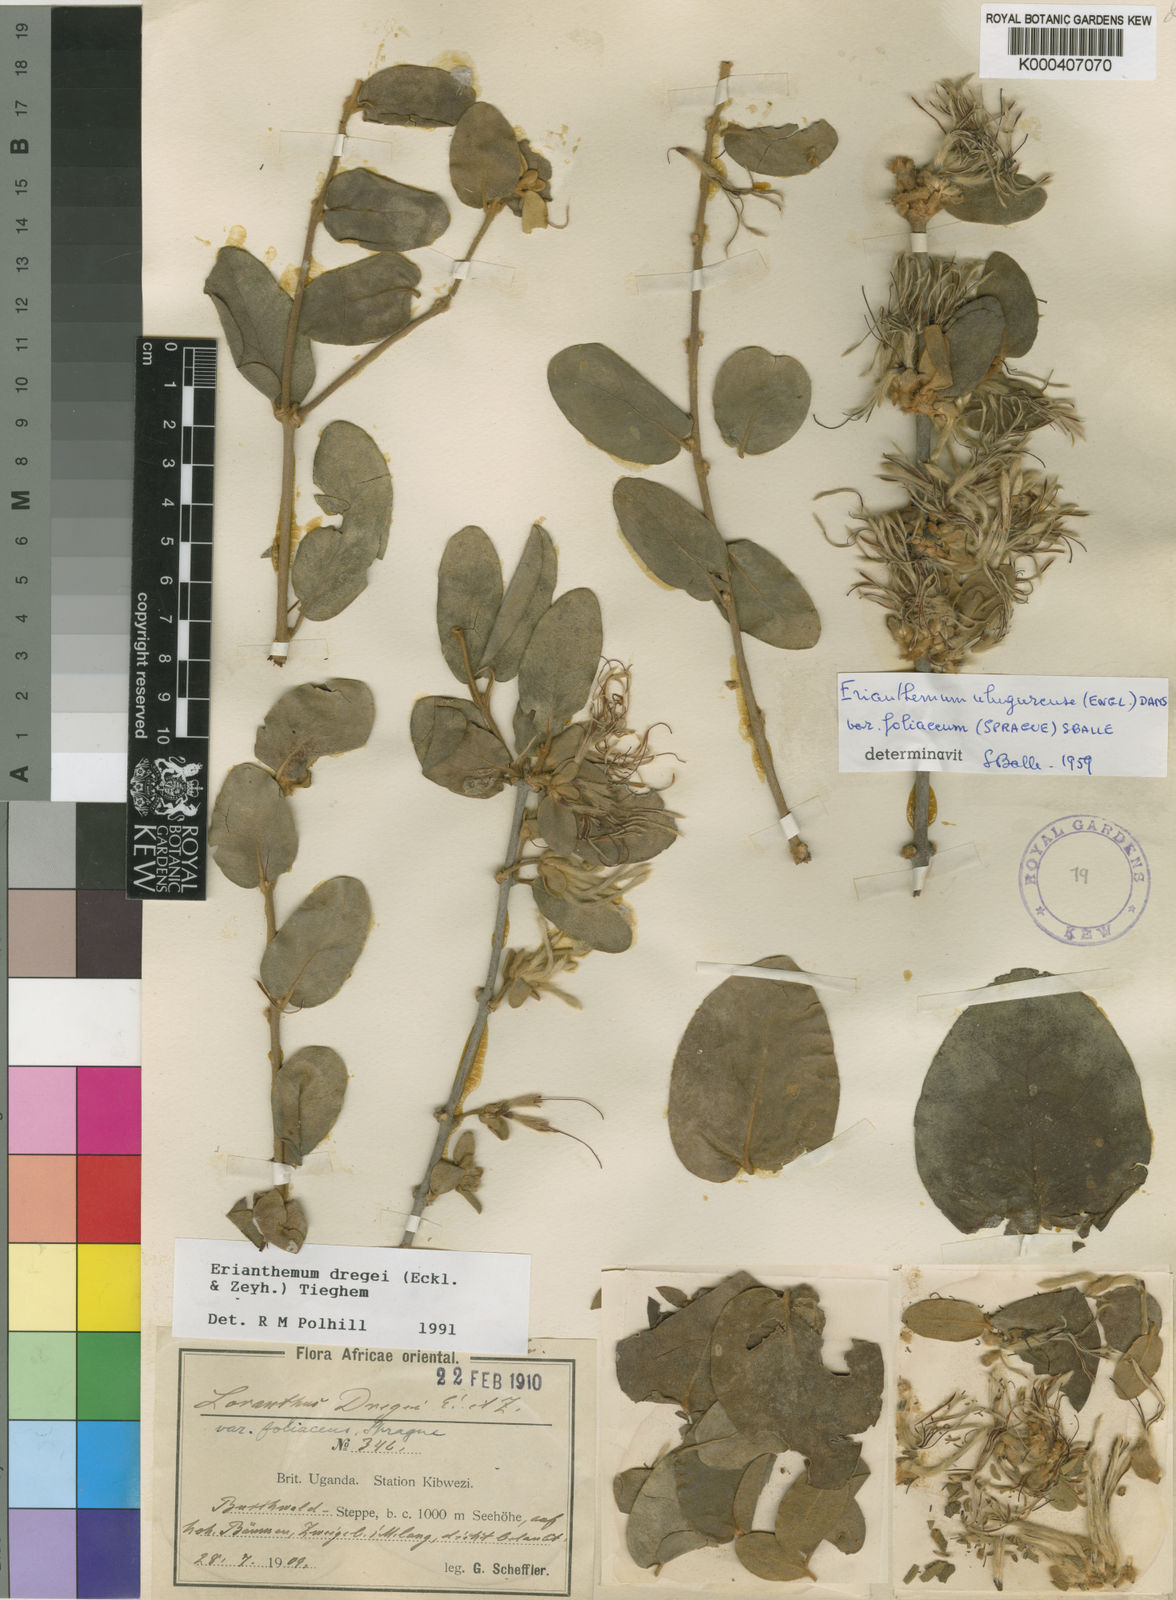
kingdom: Plantae
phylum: Tracheophyta
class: Magnoliopsida
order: Santalales
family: Loranthaceae
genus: Erianthemum
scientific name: Erianthemum dregei
